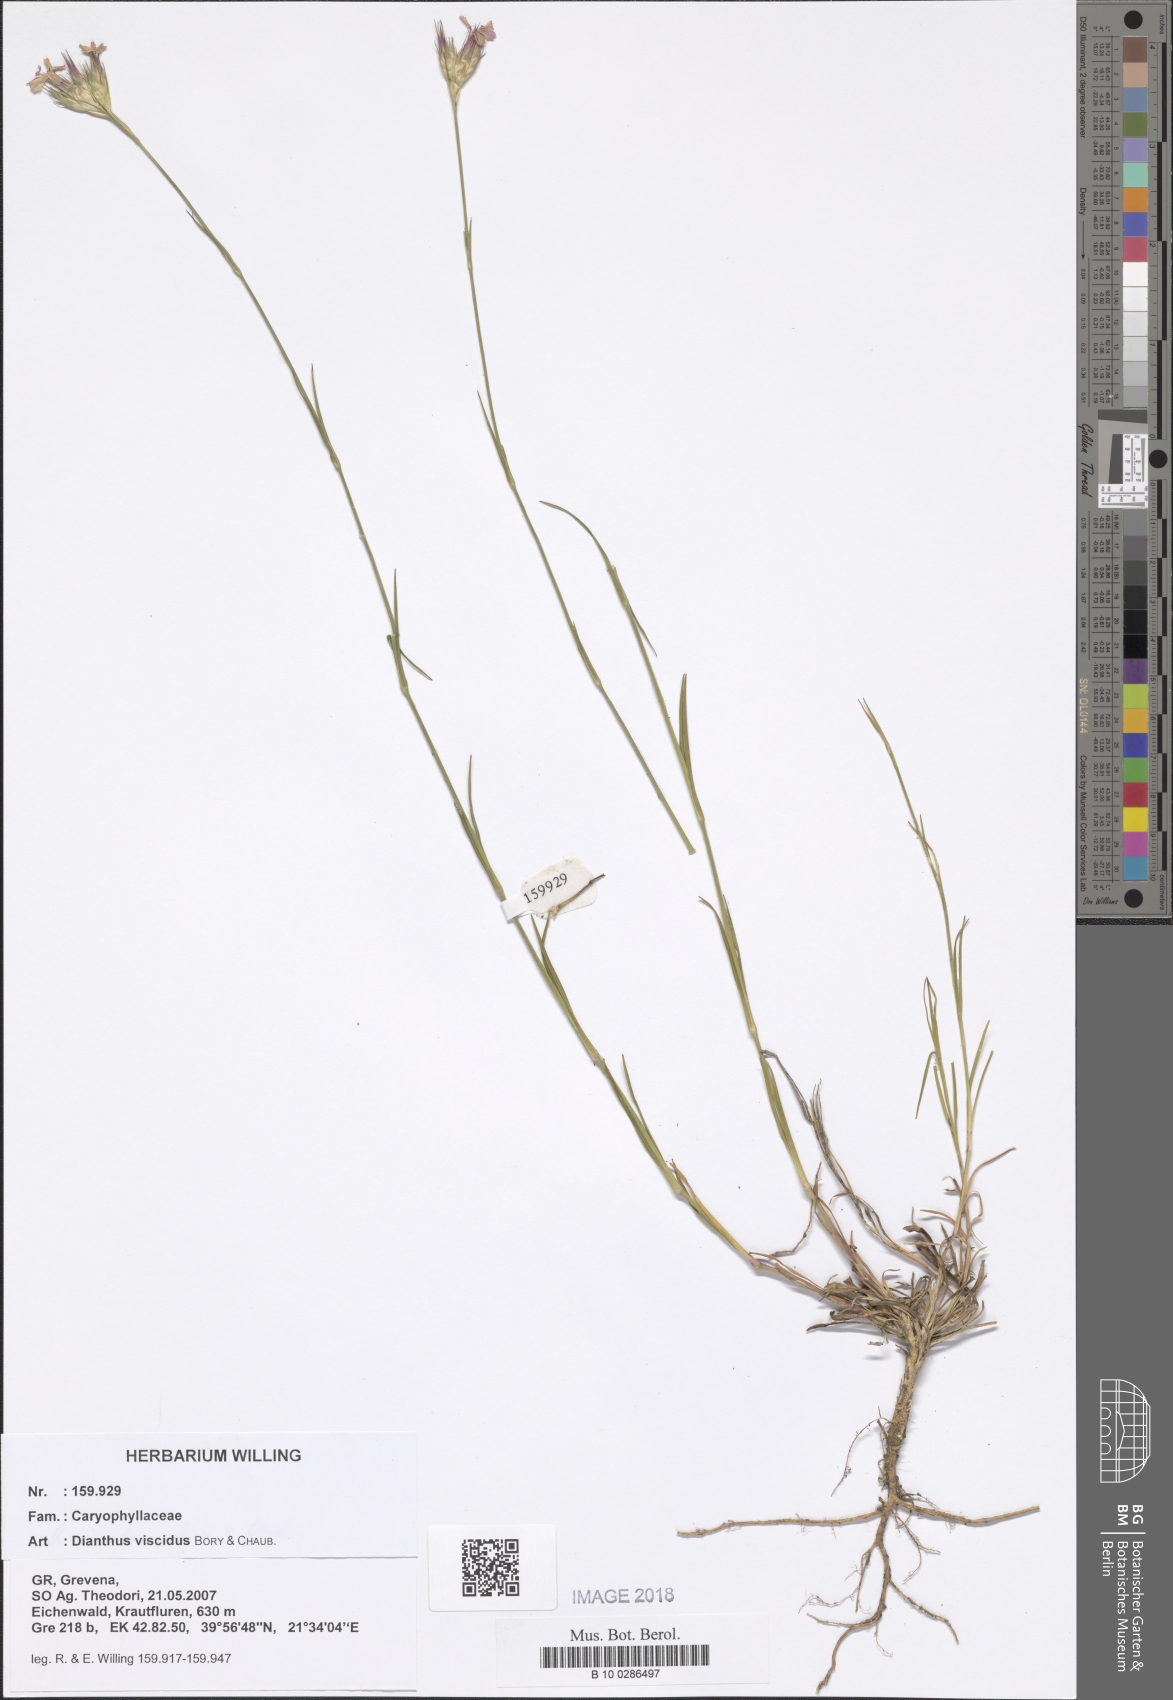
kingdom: Plantae
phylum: Tracheophyta
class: Magnoliopsida
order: Caryophyllales
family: Caryophyllaceae
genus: Dianthus
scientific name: Dianthus viscidus
